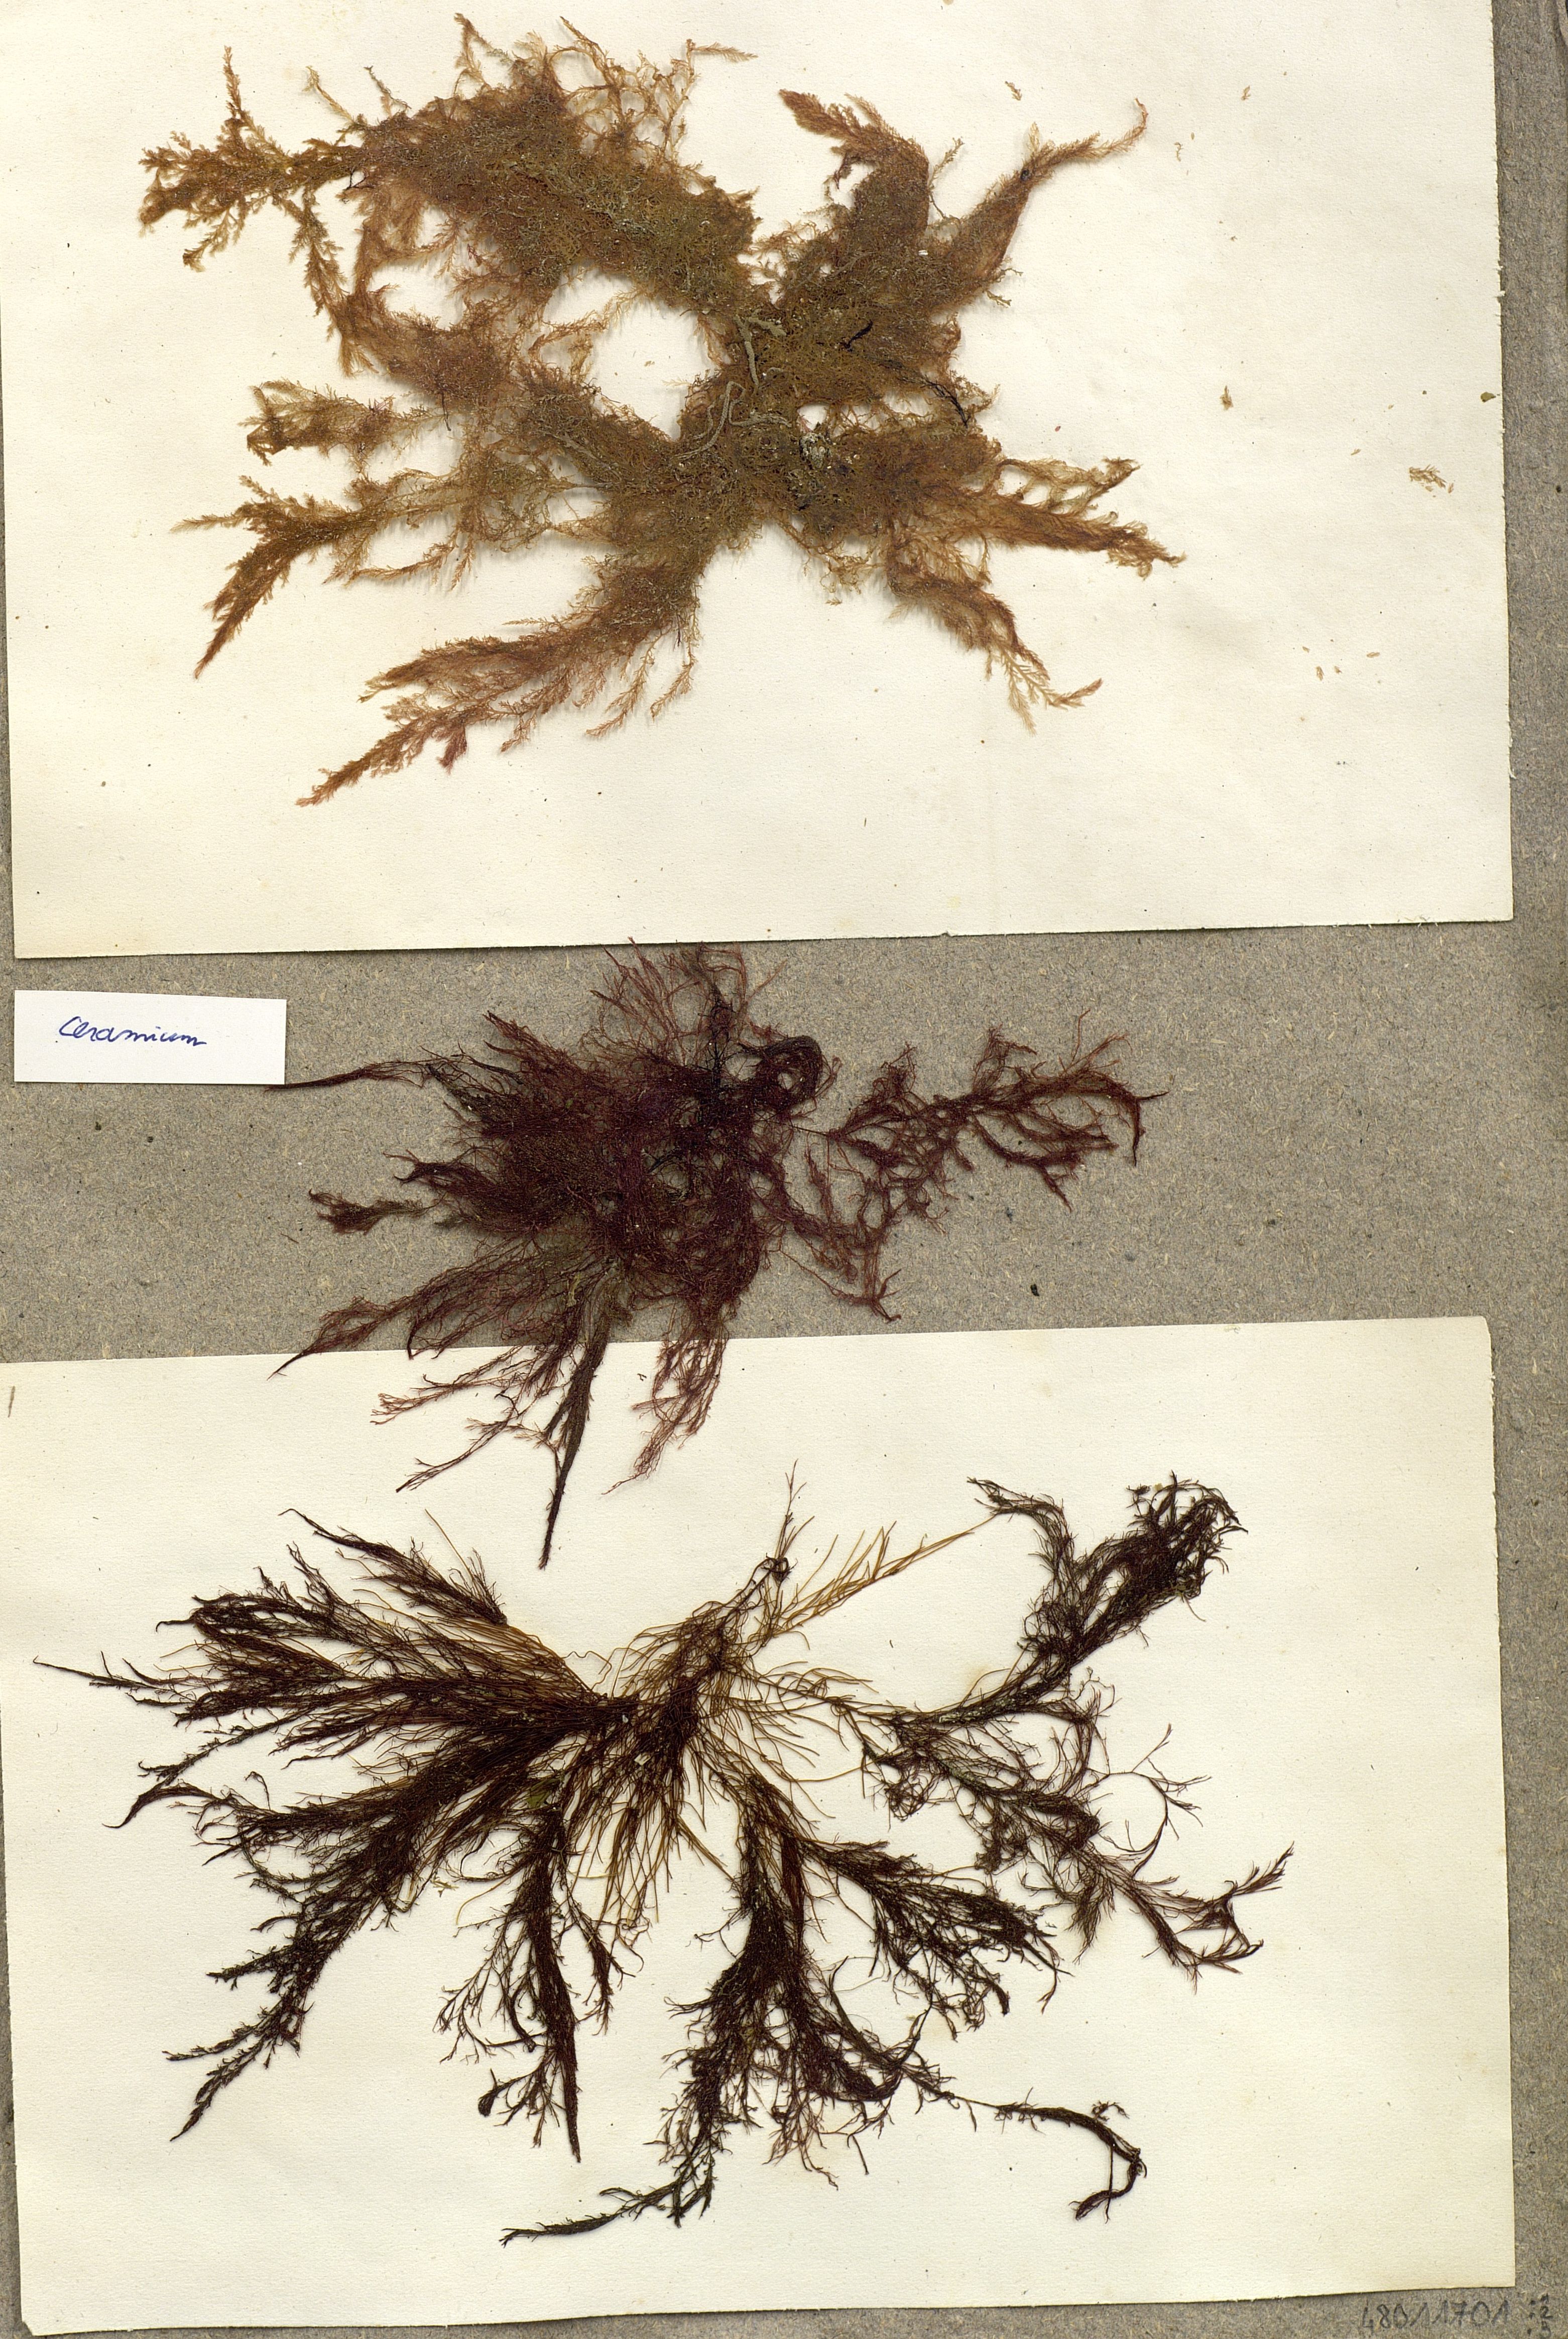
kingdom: Plantae
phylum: Rhodophyta
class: Florideophyceae
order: Ceramiales
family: Ceramiaceae
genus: Ceramium
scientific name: Ceramium
